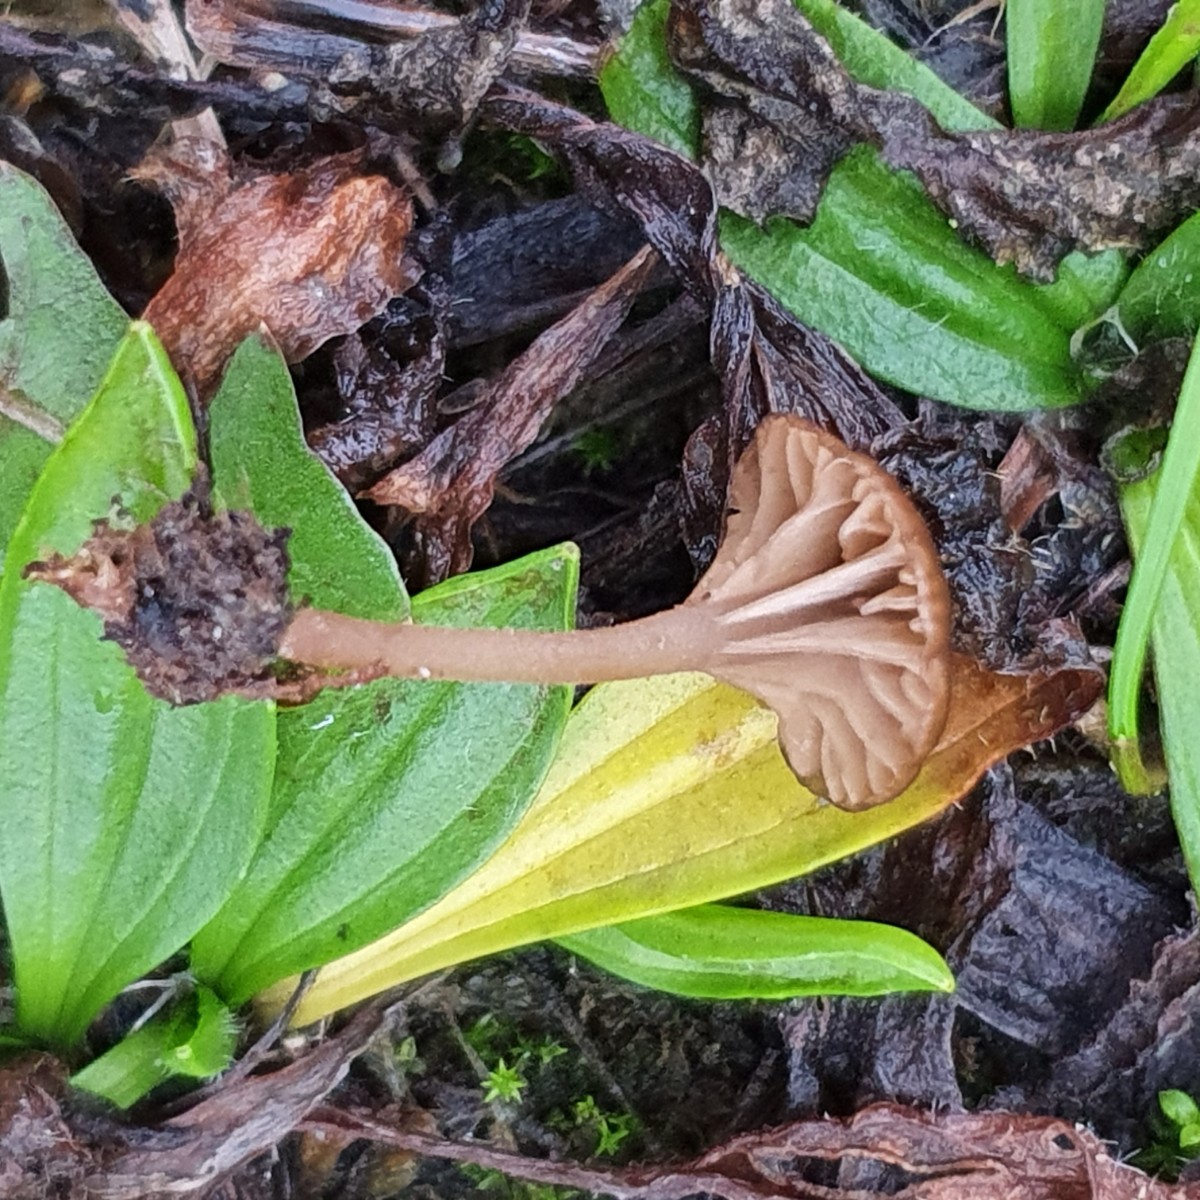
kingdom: Fungi
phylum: Basidiomycota
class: Agaricomycetes
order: Agaricales
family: Hygrophoraceae
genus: Arrhenia
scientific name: Arrhenia rustica
